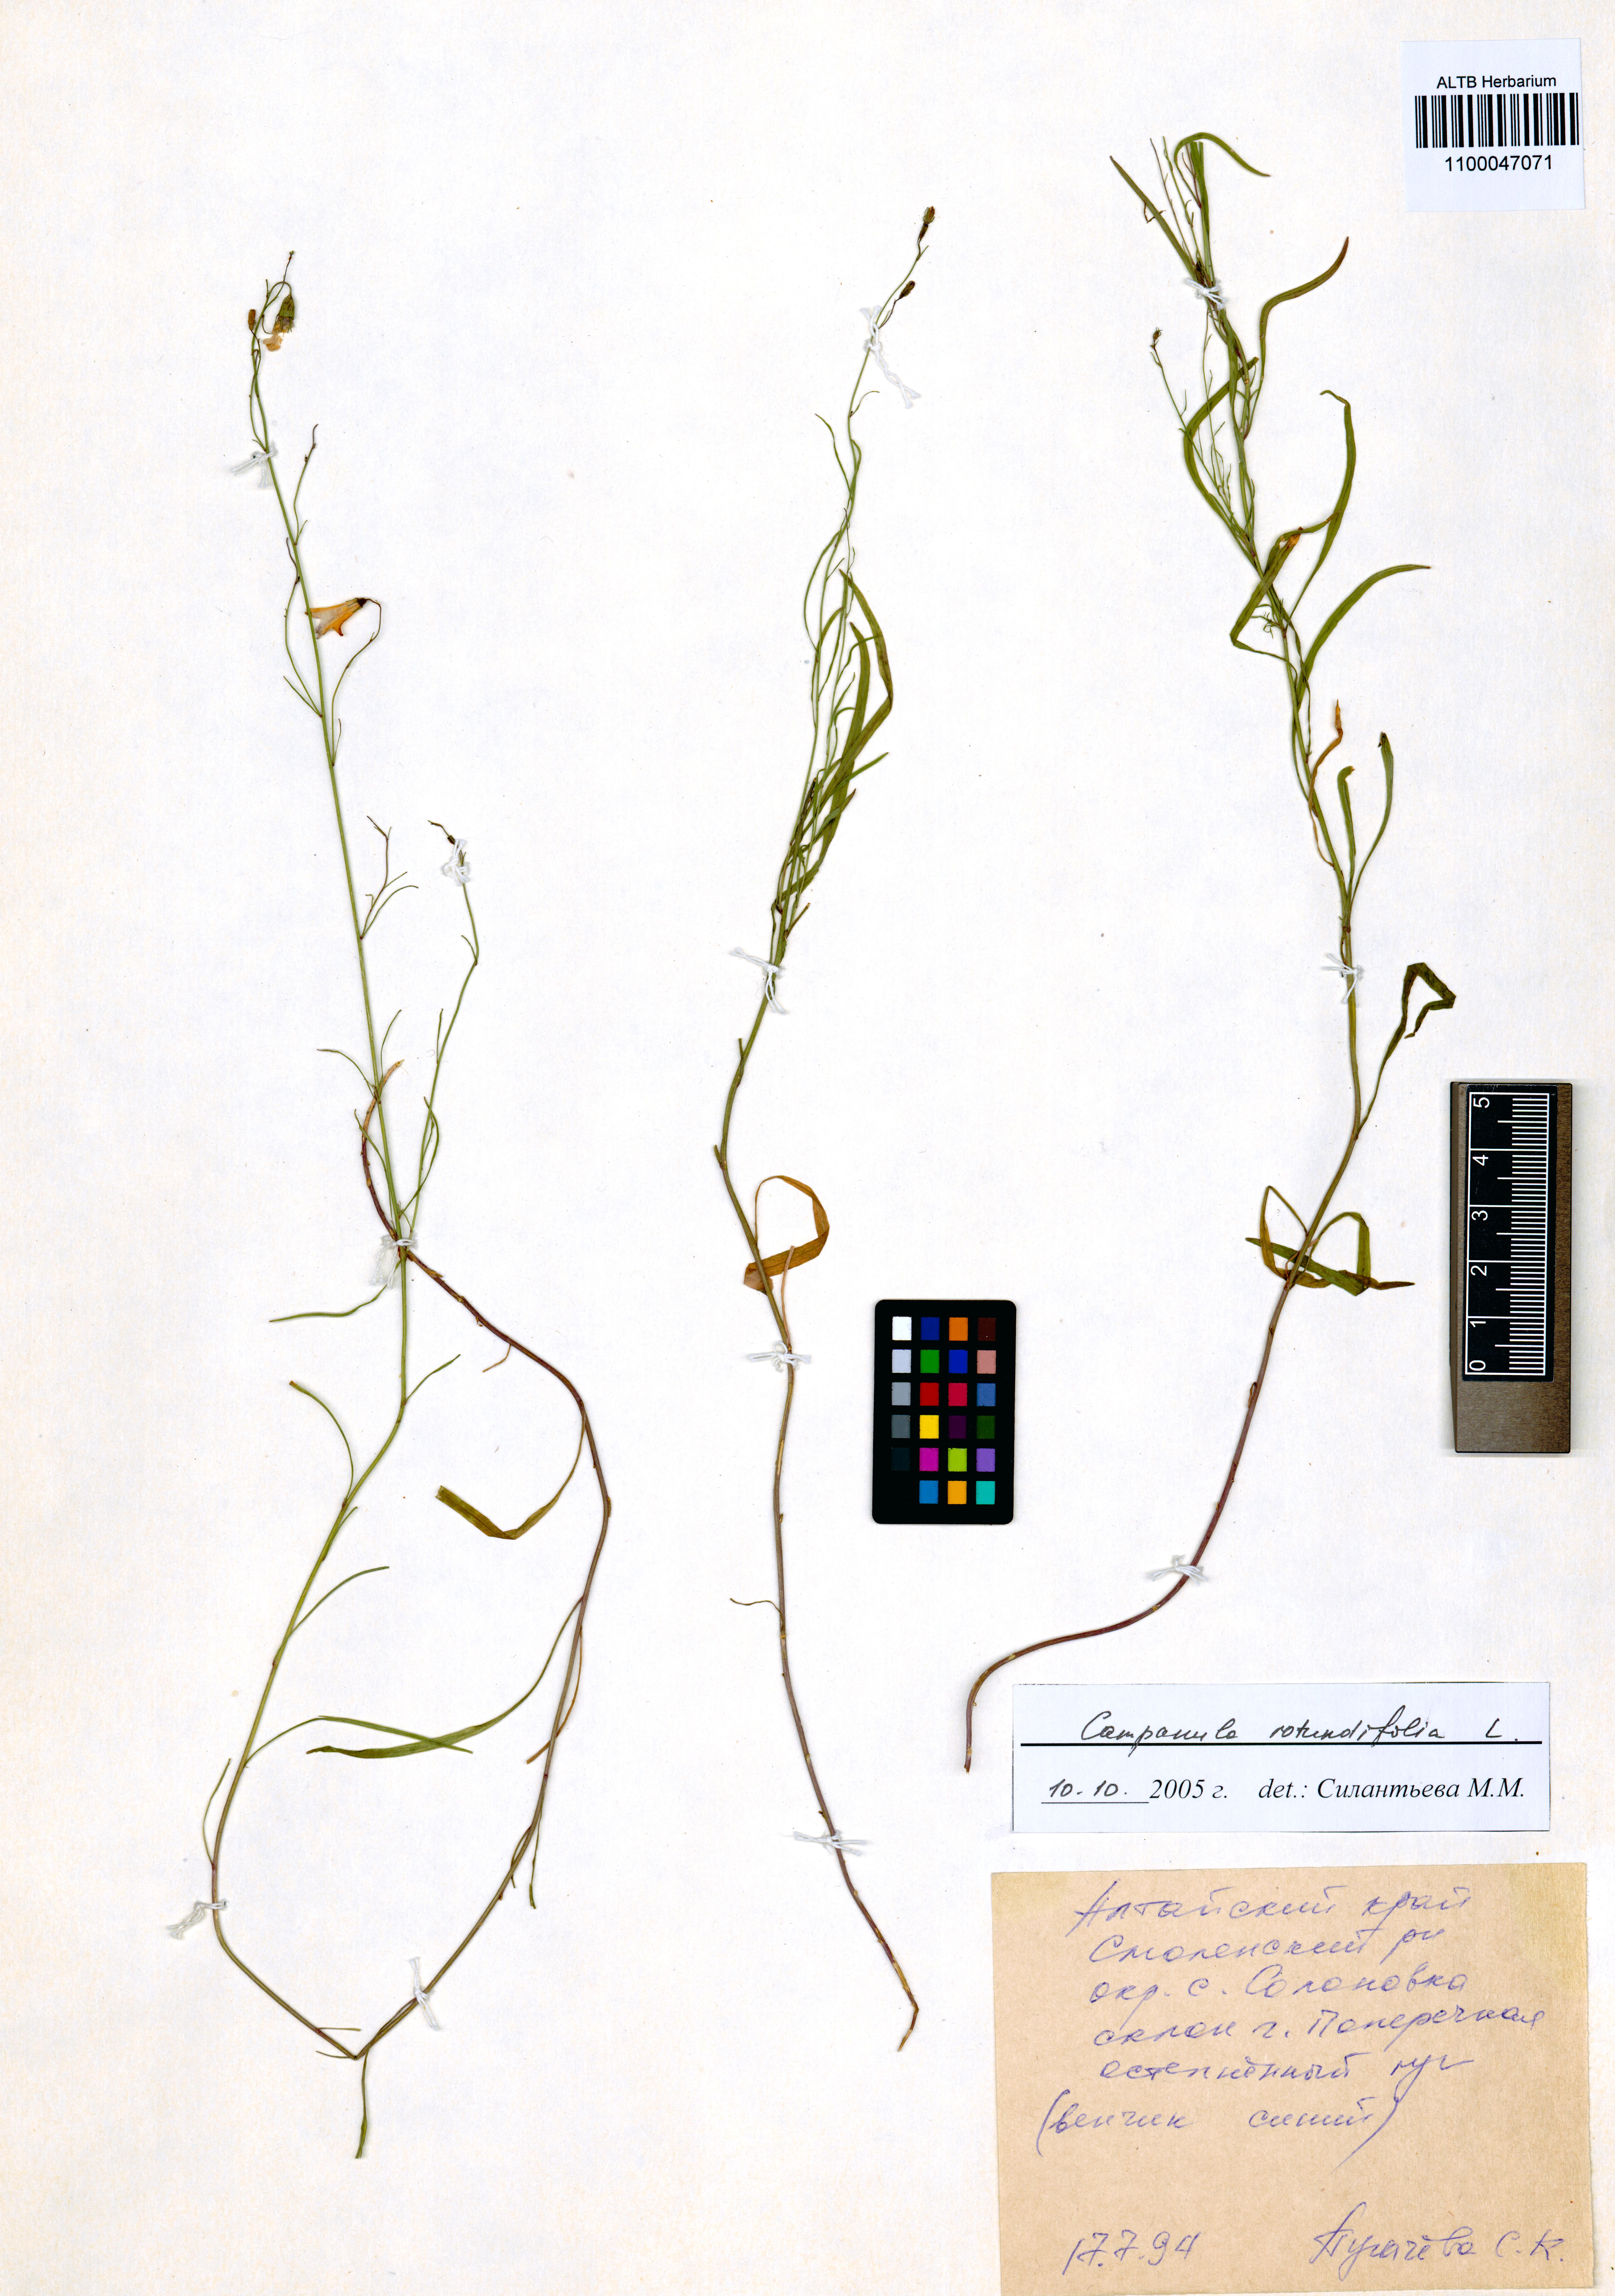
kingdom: Plantae
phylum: Tracheophyta
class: Magnoliopsida
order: Asterales
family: Campanulaceae
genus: Campanula
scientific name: Campanula rotundifolia
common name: Harebell
